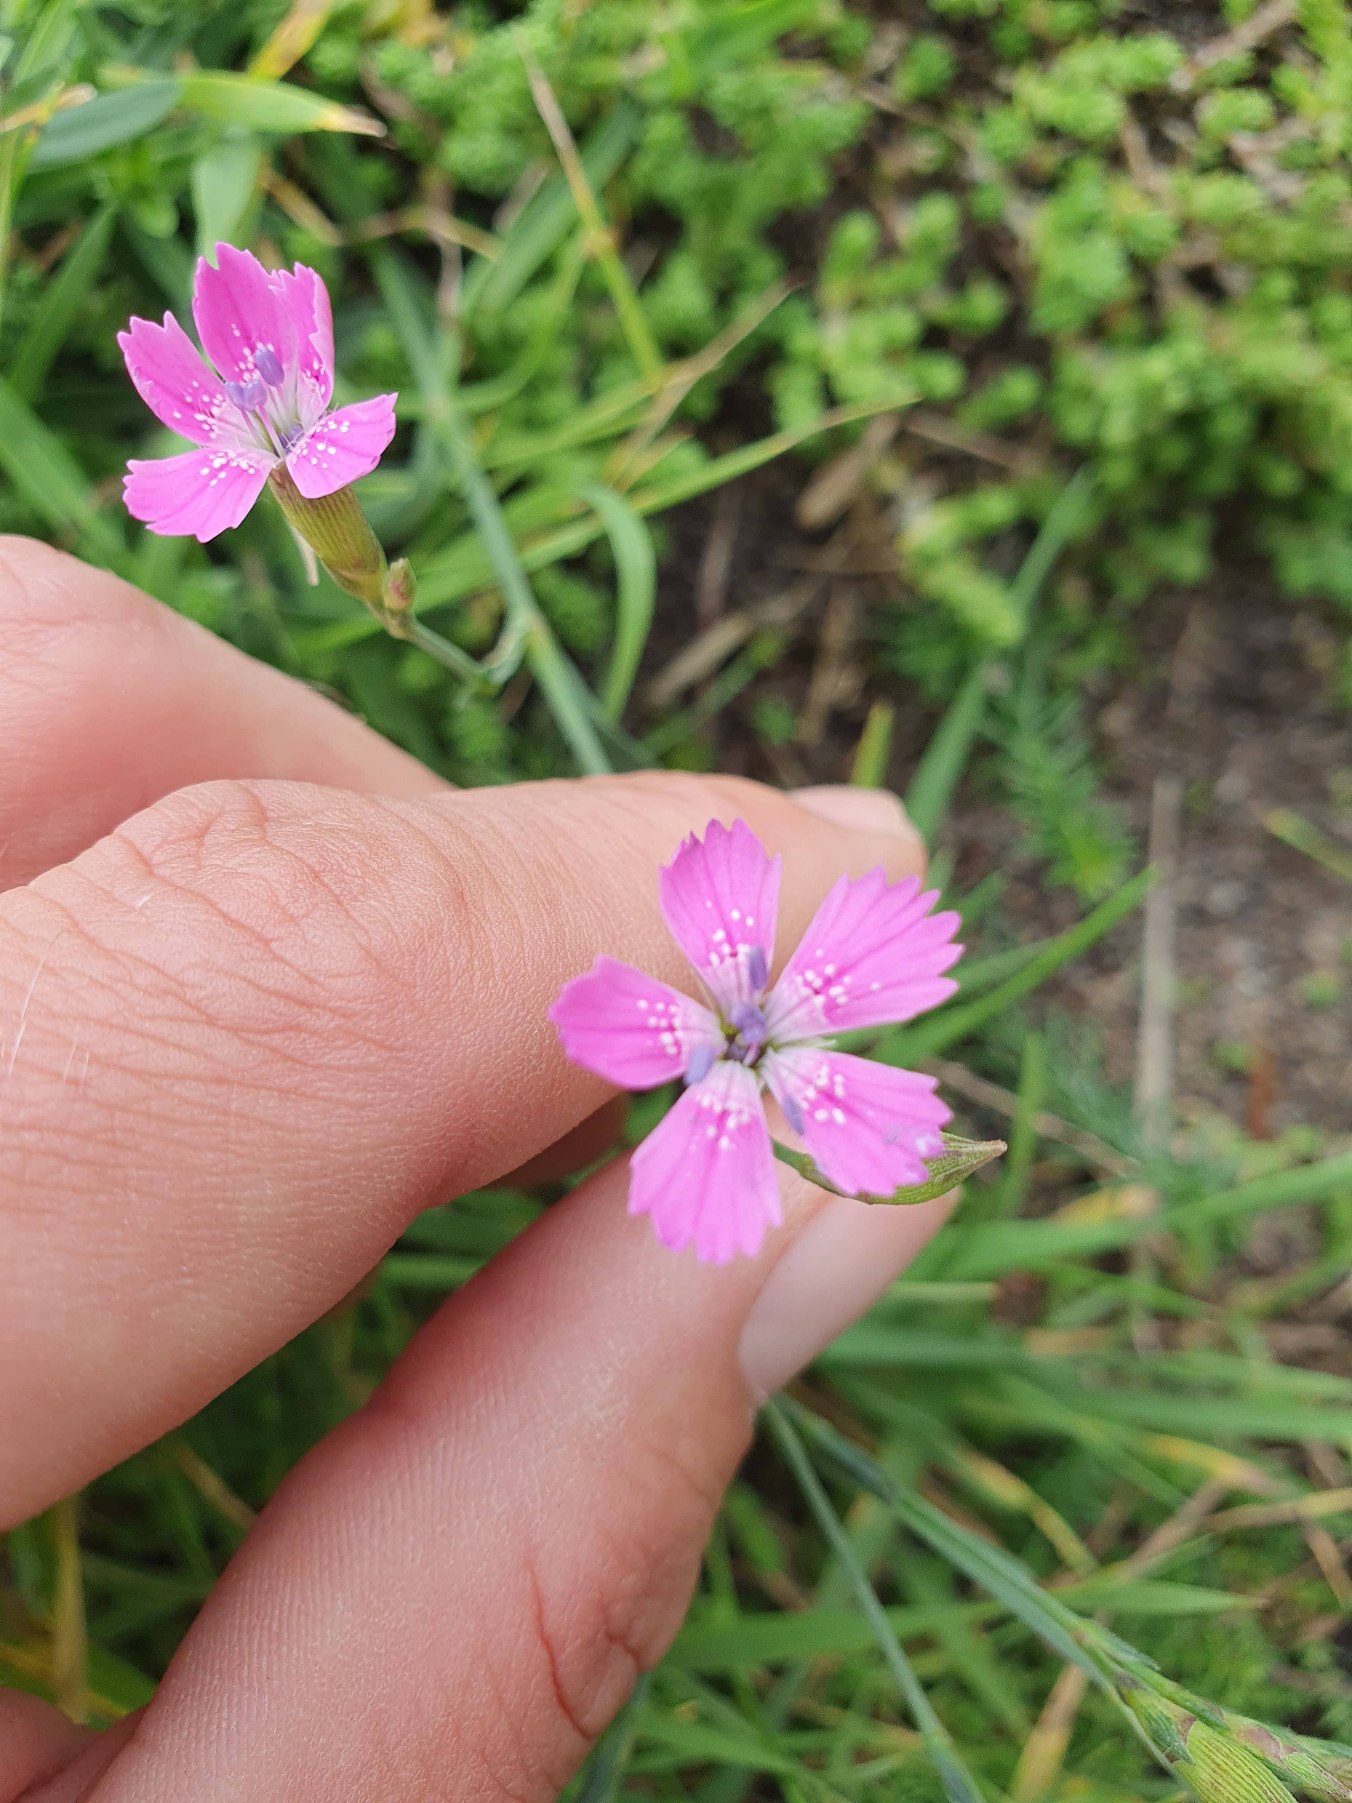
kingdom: Plantae
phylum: Tracheophyta
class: Magnoliopsida
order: Caryophyllales
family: Caryophyllaceae
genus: Dianthus
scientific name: Dianthus deltoides
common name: Bakke-nellike
